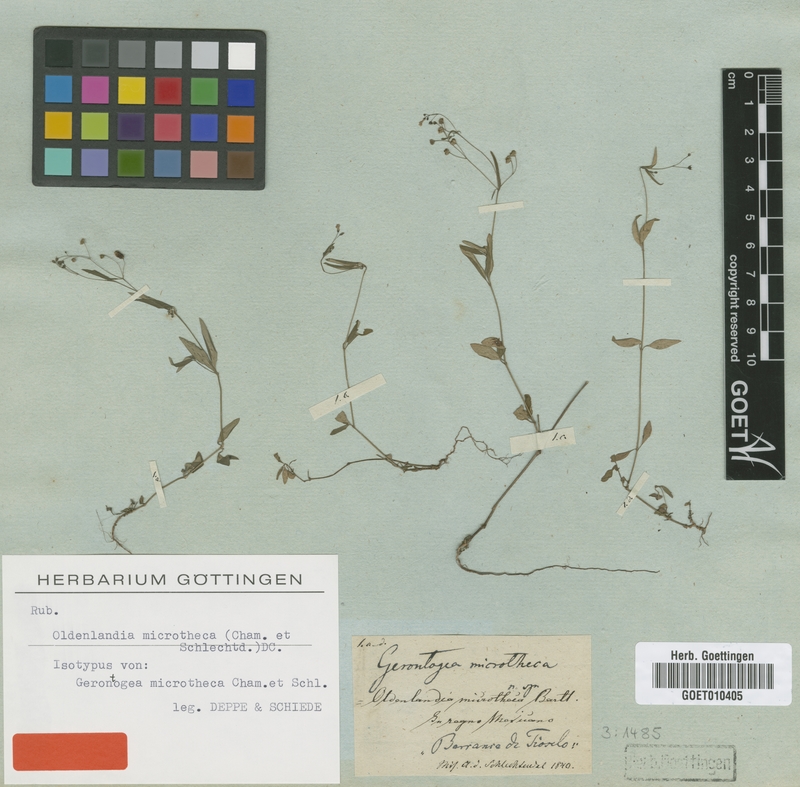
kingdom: Plantae
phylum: Tracheophyta
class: Magnoliopsida
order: Gentianales
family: Rubiaceae
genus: Oldenlandia
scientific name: Oldenlandia microtheca
